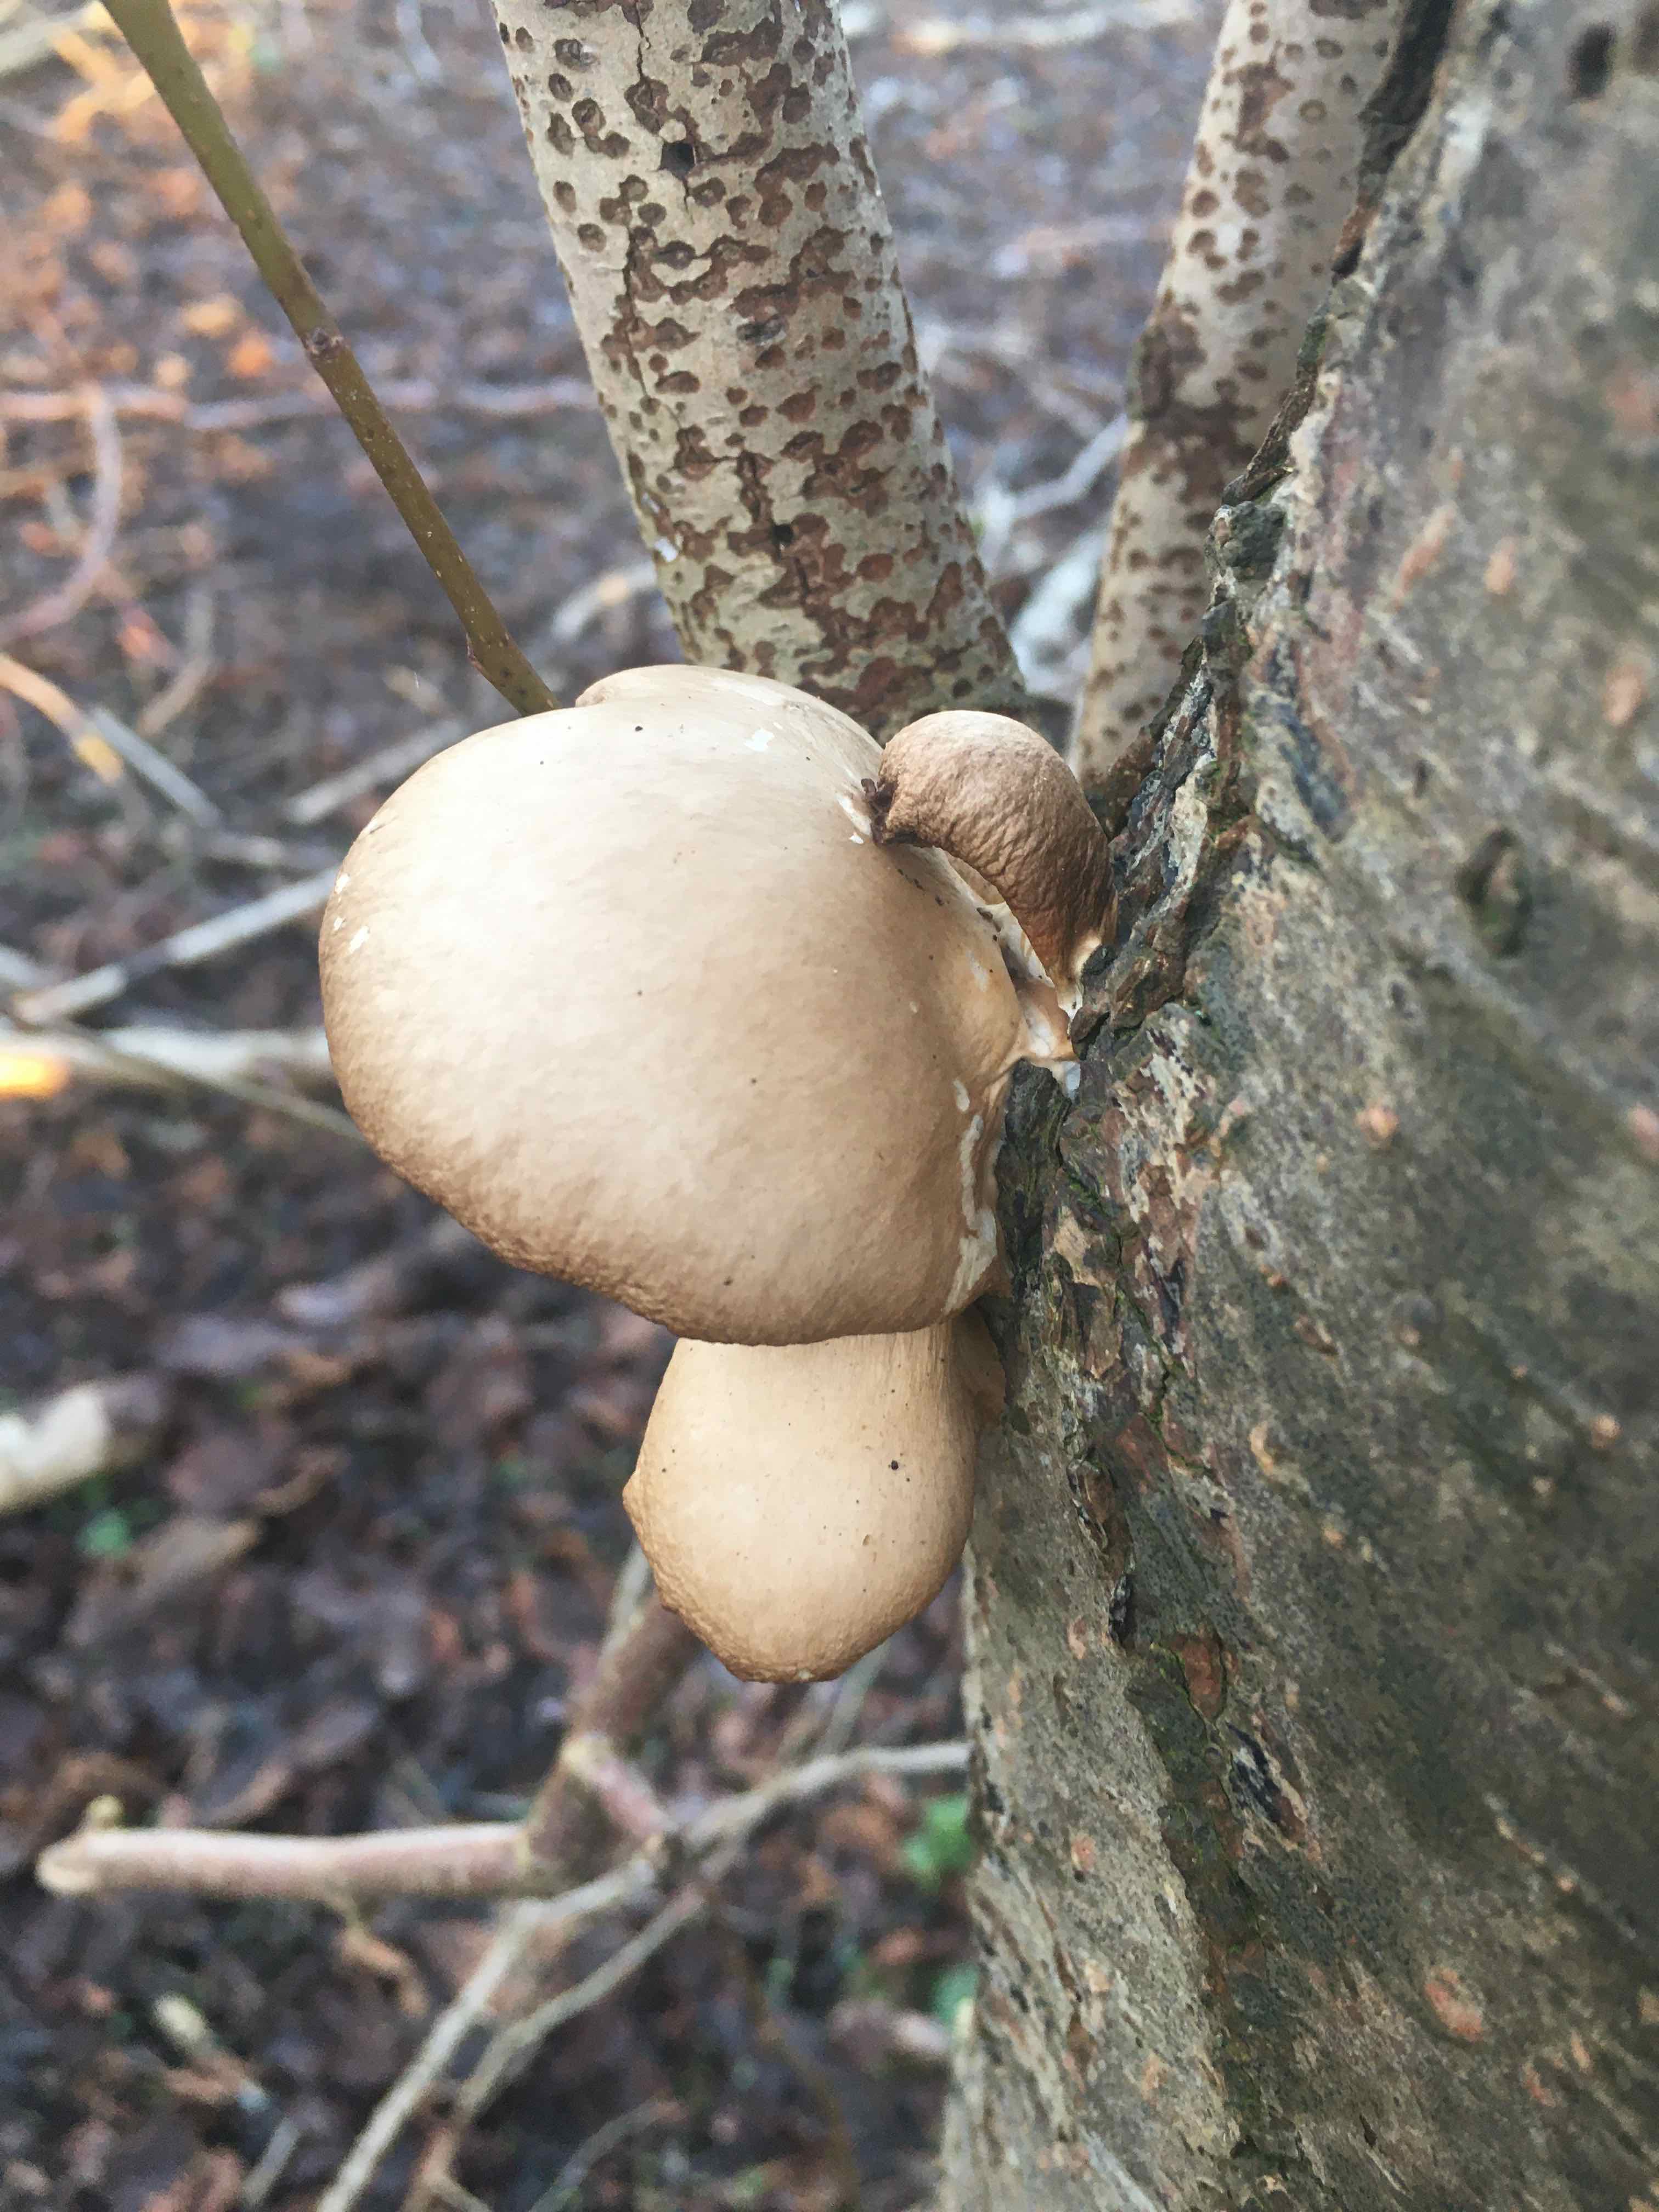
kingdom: Fungi
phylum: Basidiomycota
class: Agaricomycetes
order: Agaricales
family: Sarcomyxaceae
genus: Sarcomyxa
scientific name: Sarcomyxa serotina
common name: gummihat
